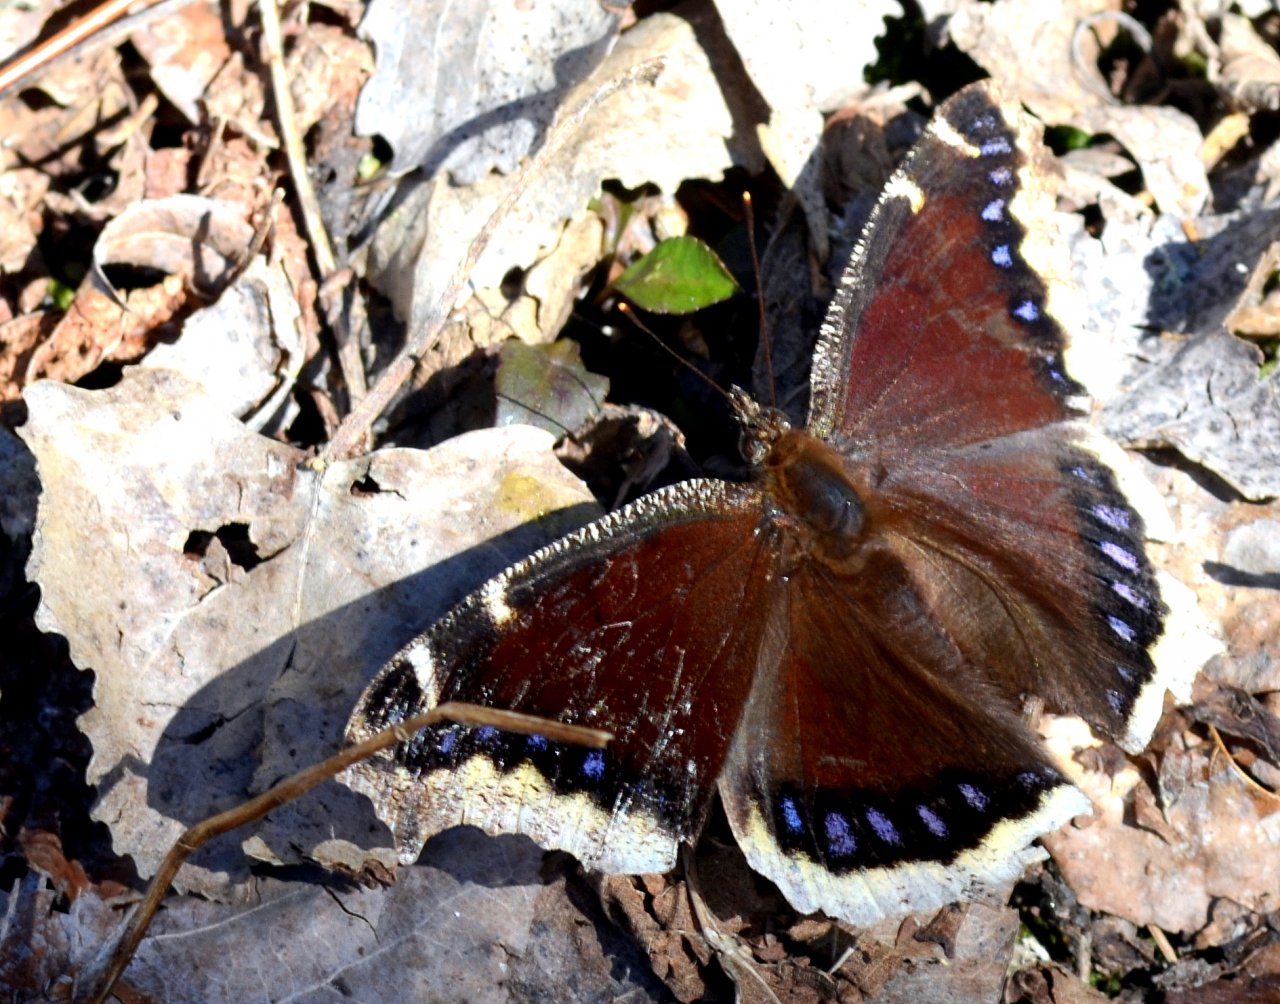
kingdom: Animalia
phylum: Arthropoda
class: Insecta
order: Lepidoptera
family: Nymphalidae
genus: Nymphalis
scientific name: Nymphalis antiopa
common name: Mourning Cloak
